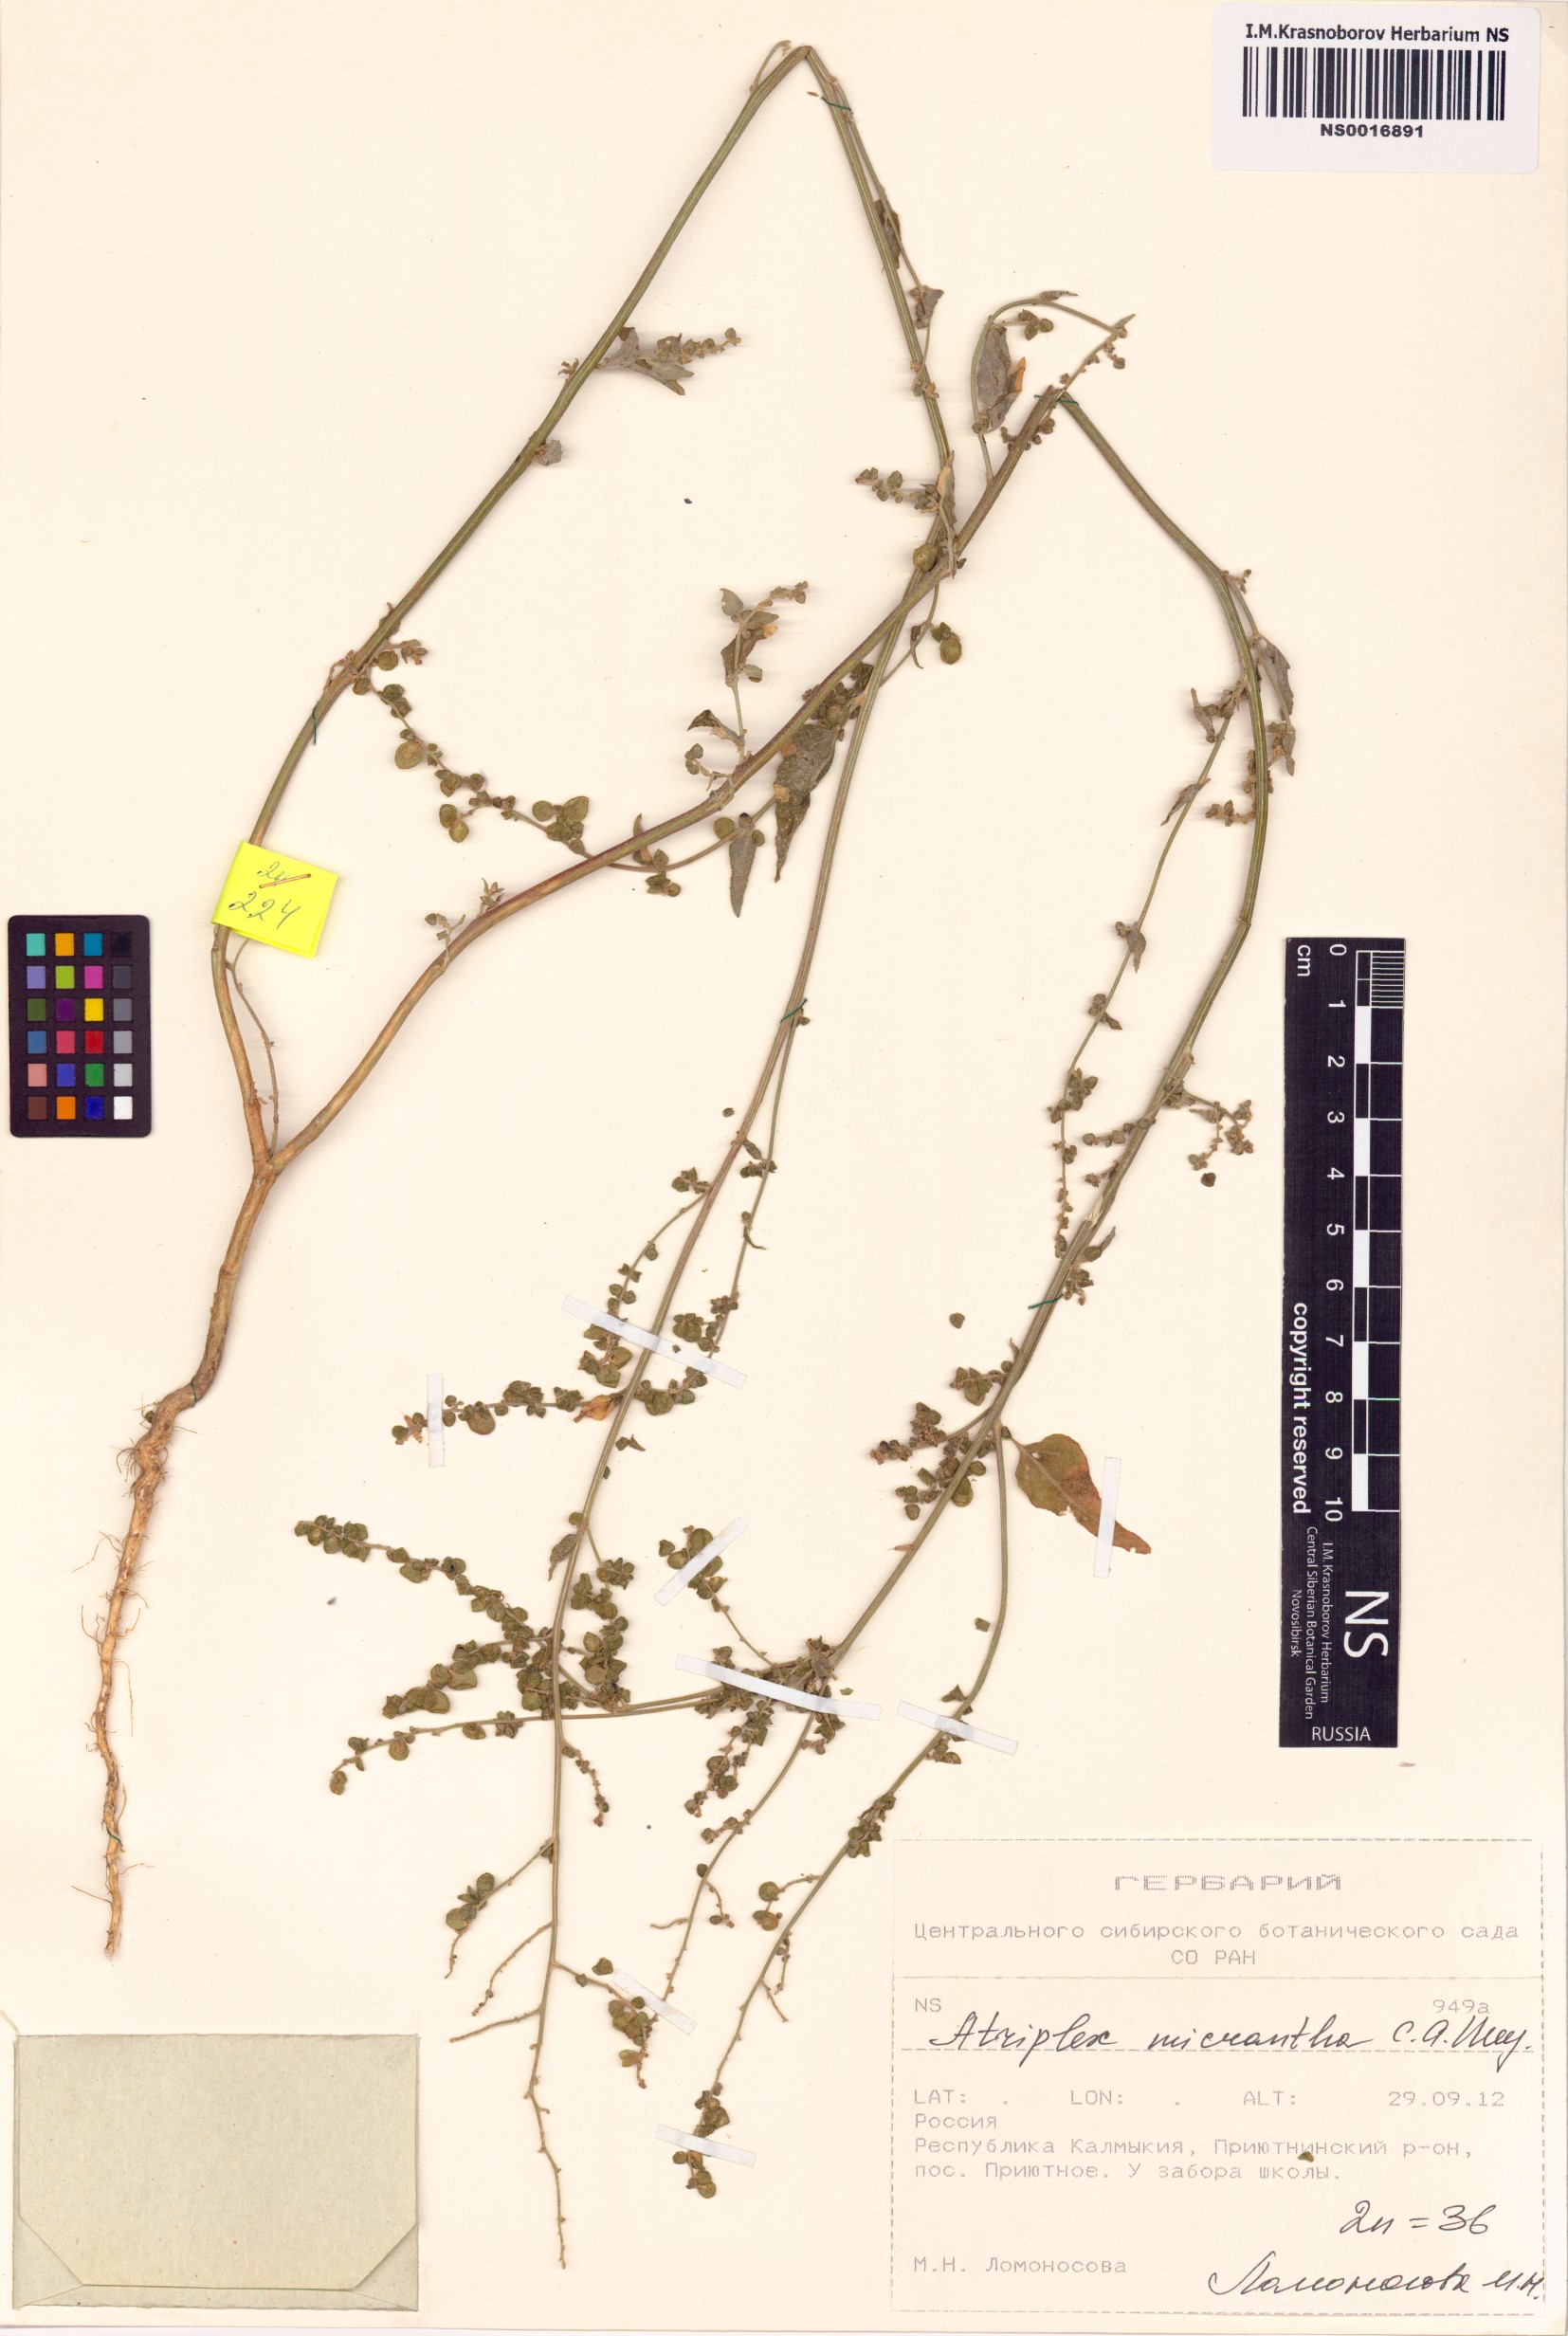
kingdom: Plantae
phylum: Tracheophyta
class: Magnoliopsida
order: Caryophyllales
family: Amaranthaceae
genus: Atriplex
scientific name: Atriplex micrantha
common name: Twoscale saltbush
